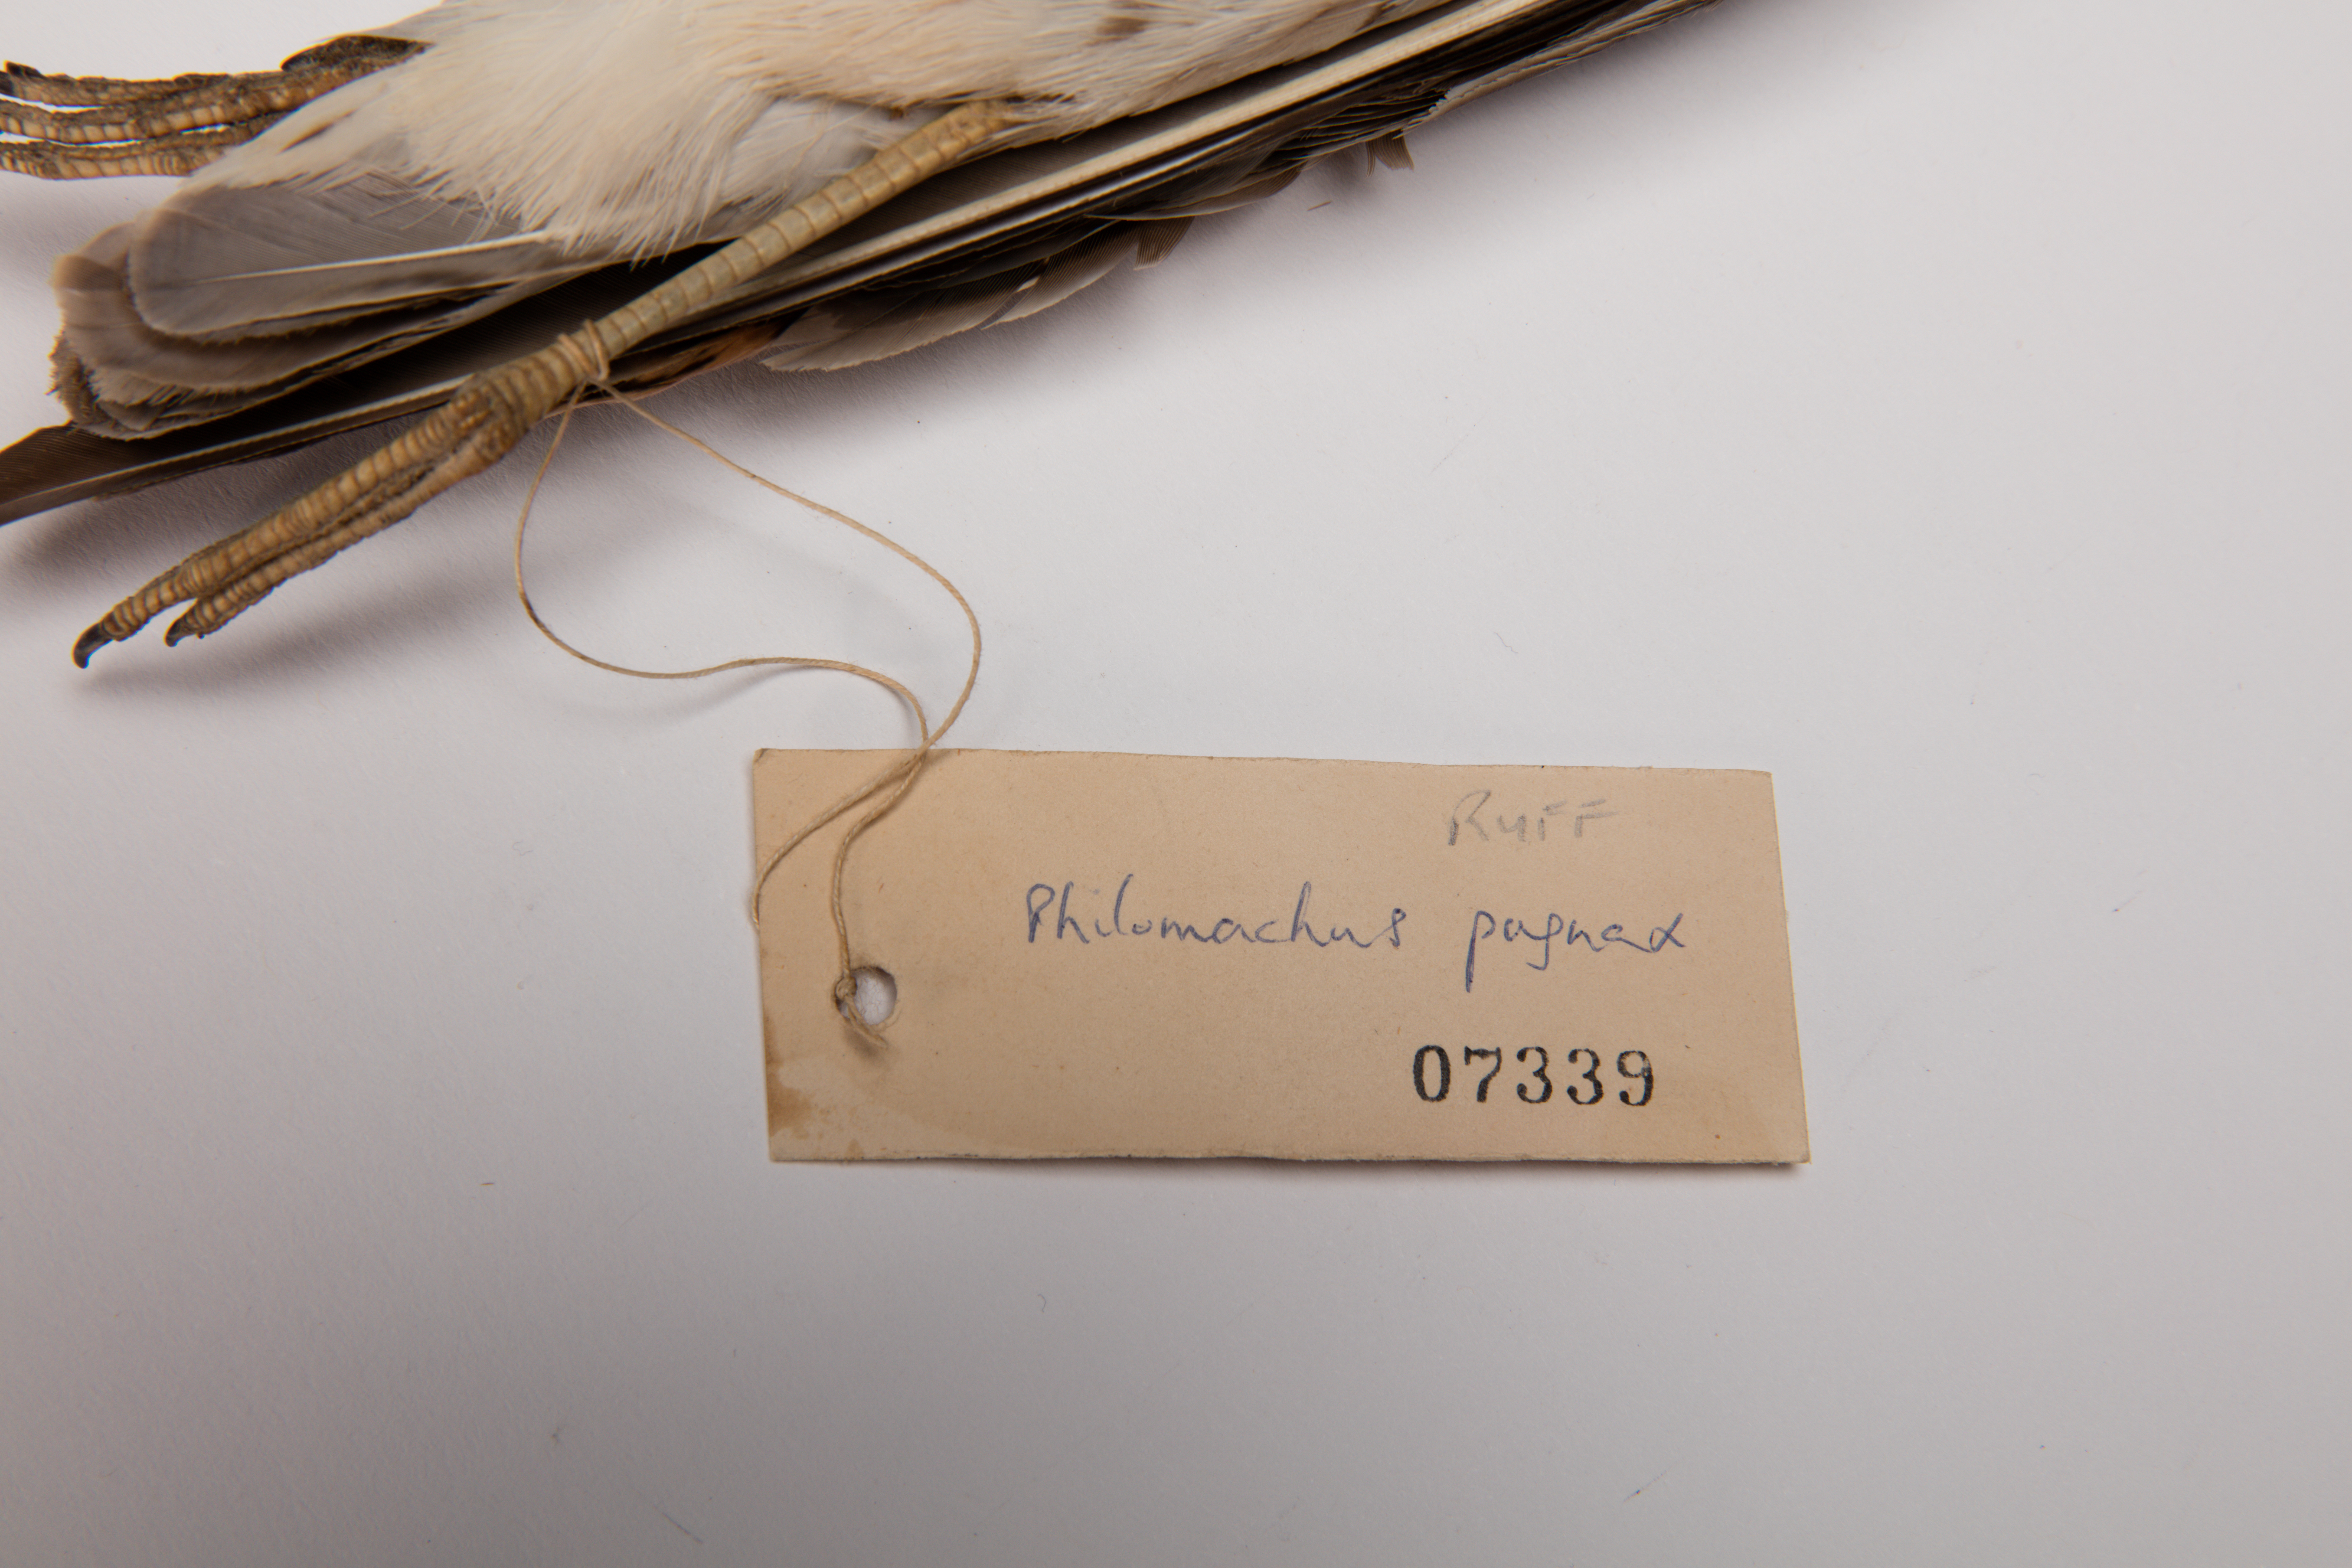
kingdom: Animalia
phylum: Chordata
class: Aves
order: Charadriiformes
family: Scolopacidae
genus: Calidris
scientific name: Calidris pugnax
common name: Ruff
